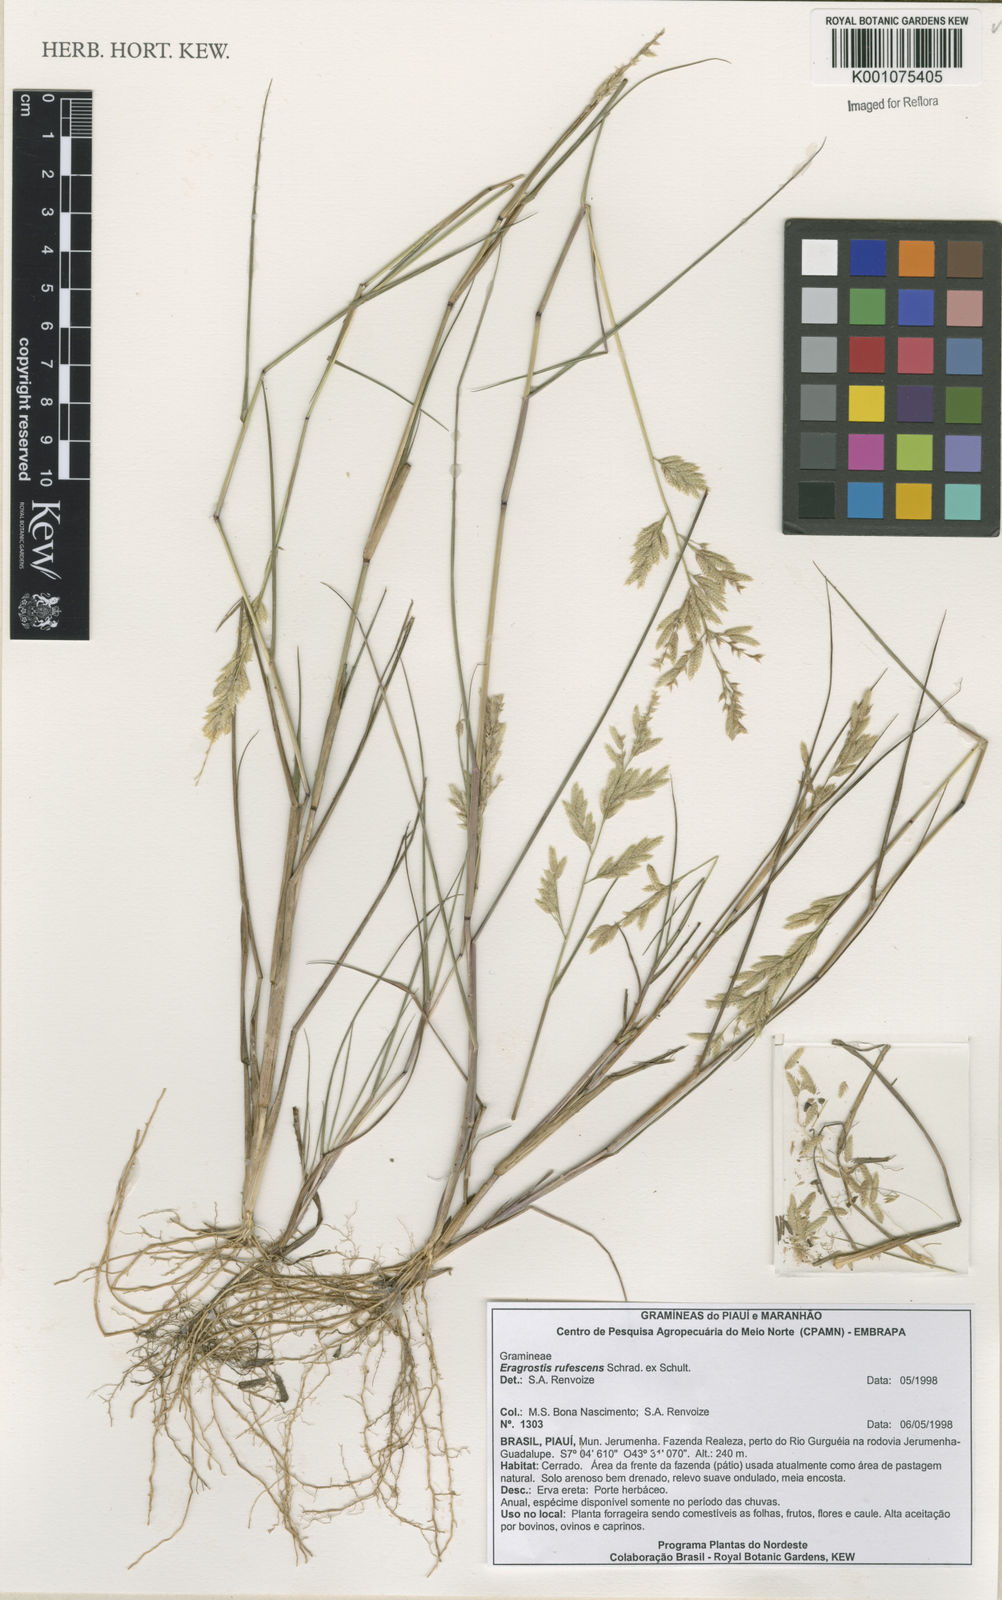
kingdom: Plantae
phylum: Tracheophyta
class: Liliopsida
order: Poales
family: Poaceae
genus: Eragrostis
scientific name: Eragrostis rufescens
